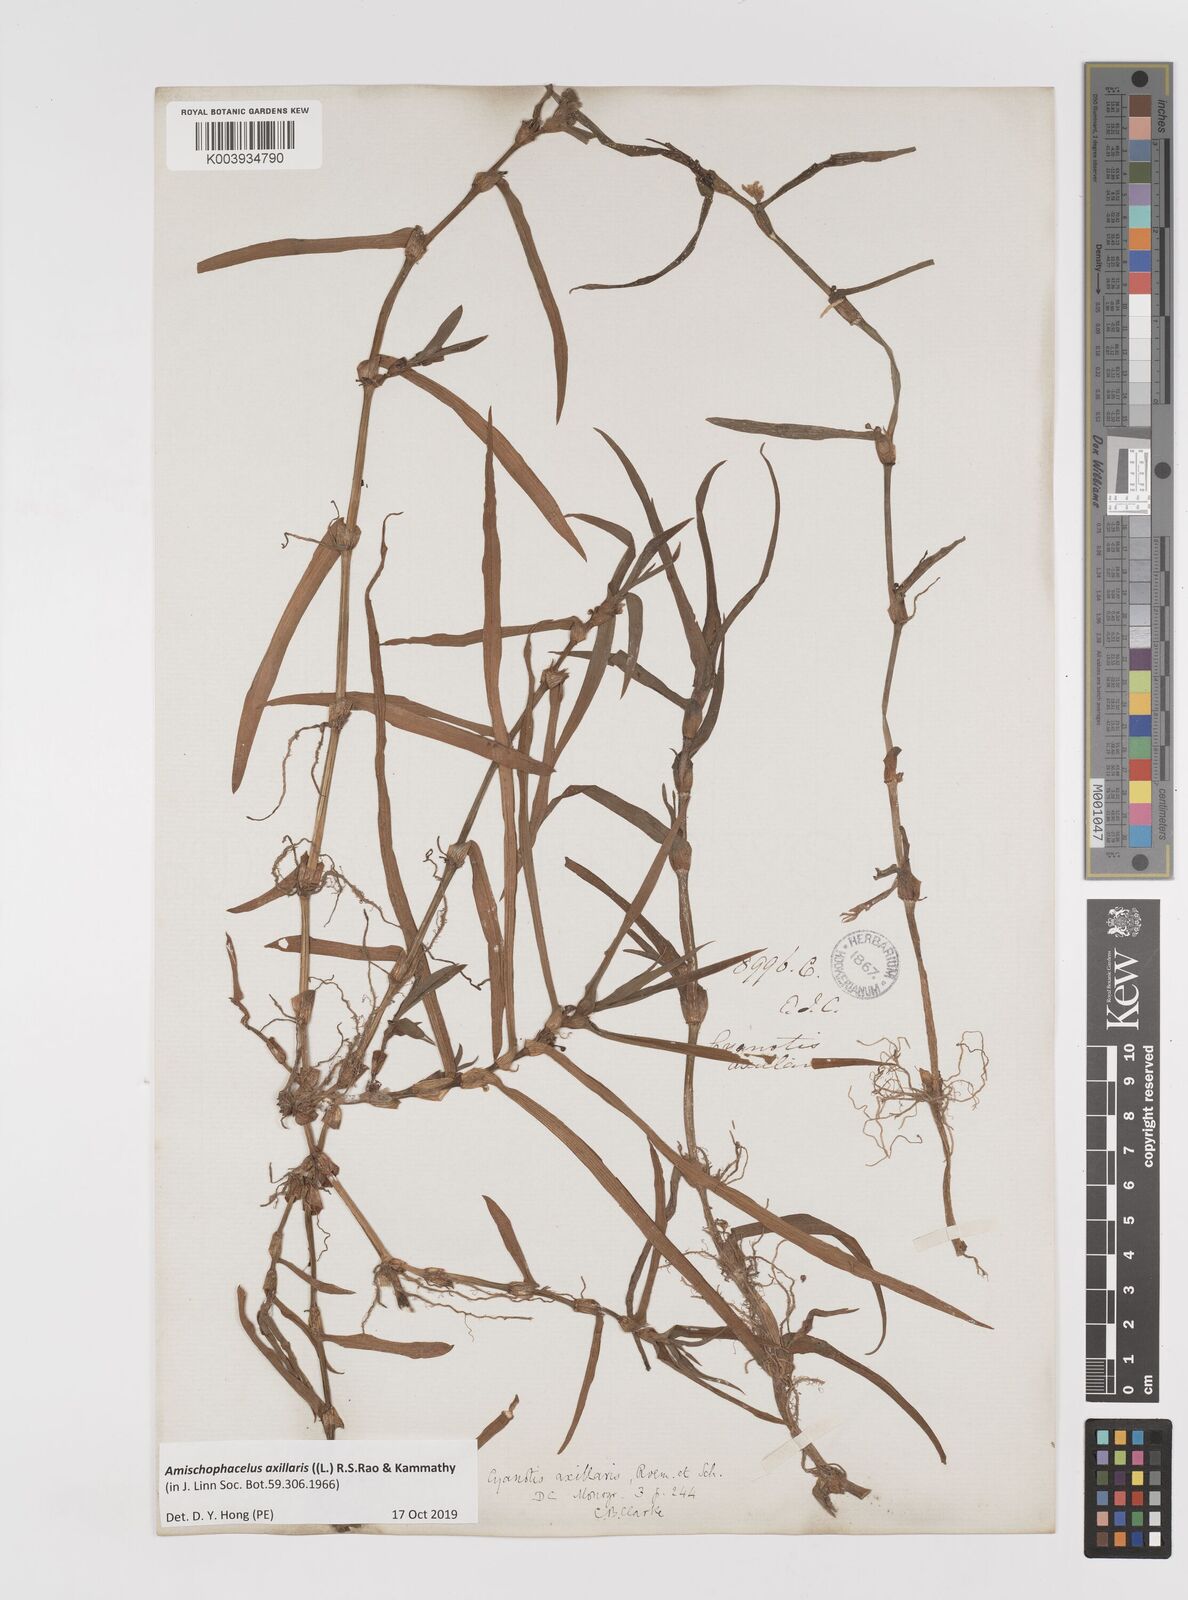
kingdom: Plantae
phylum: Tracheophyta
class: Liliopsida
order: Commelinales
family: Commelinaceae
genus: Cyanotis
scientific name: Cyanotis axillaris
